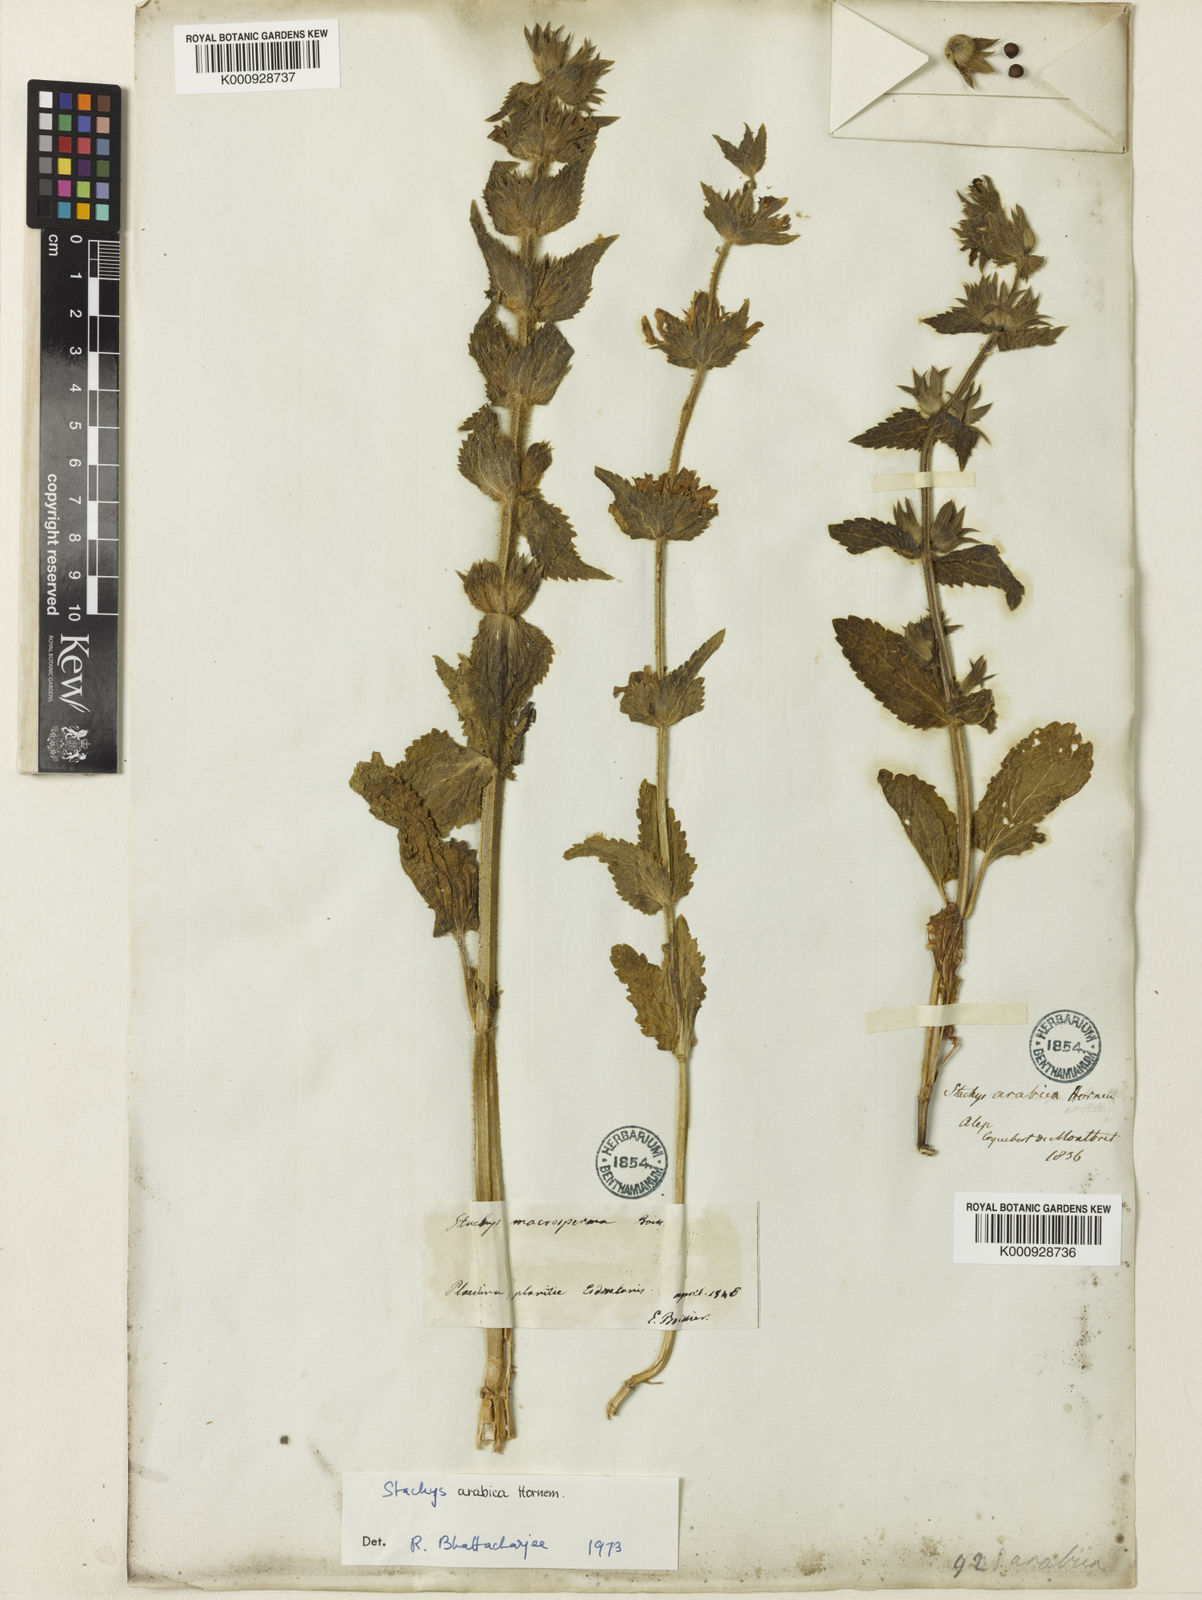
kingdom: Plantae
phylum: Tracheophyta
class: Magnoliopsida
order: Lamiales
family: Lamiaceae
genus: Stachys
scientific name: Stachys arabica
